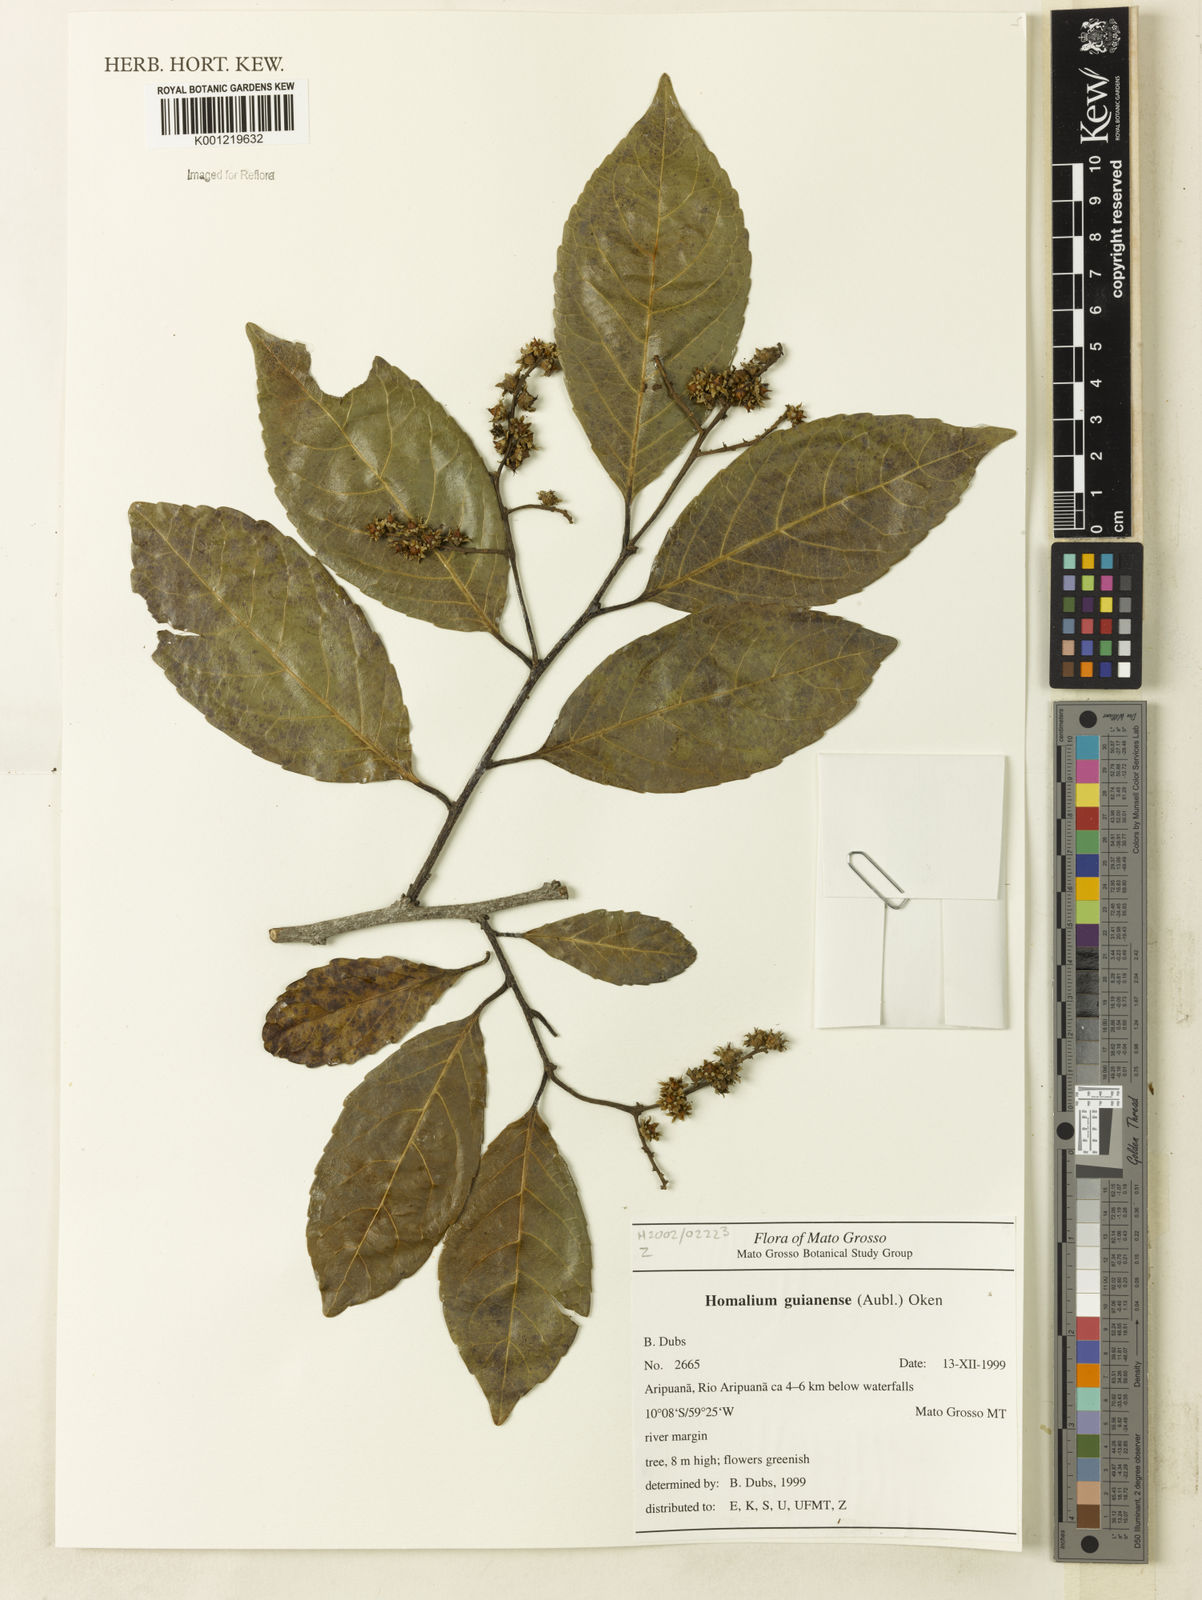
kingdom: Plantae
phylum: Tracheophyta
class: Magnoliopsida
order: Malpighiales
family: Salicaceae
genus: Homalium
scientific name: Homalium guianense
